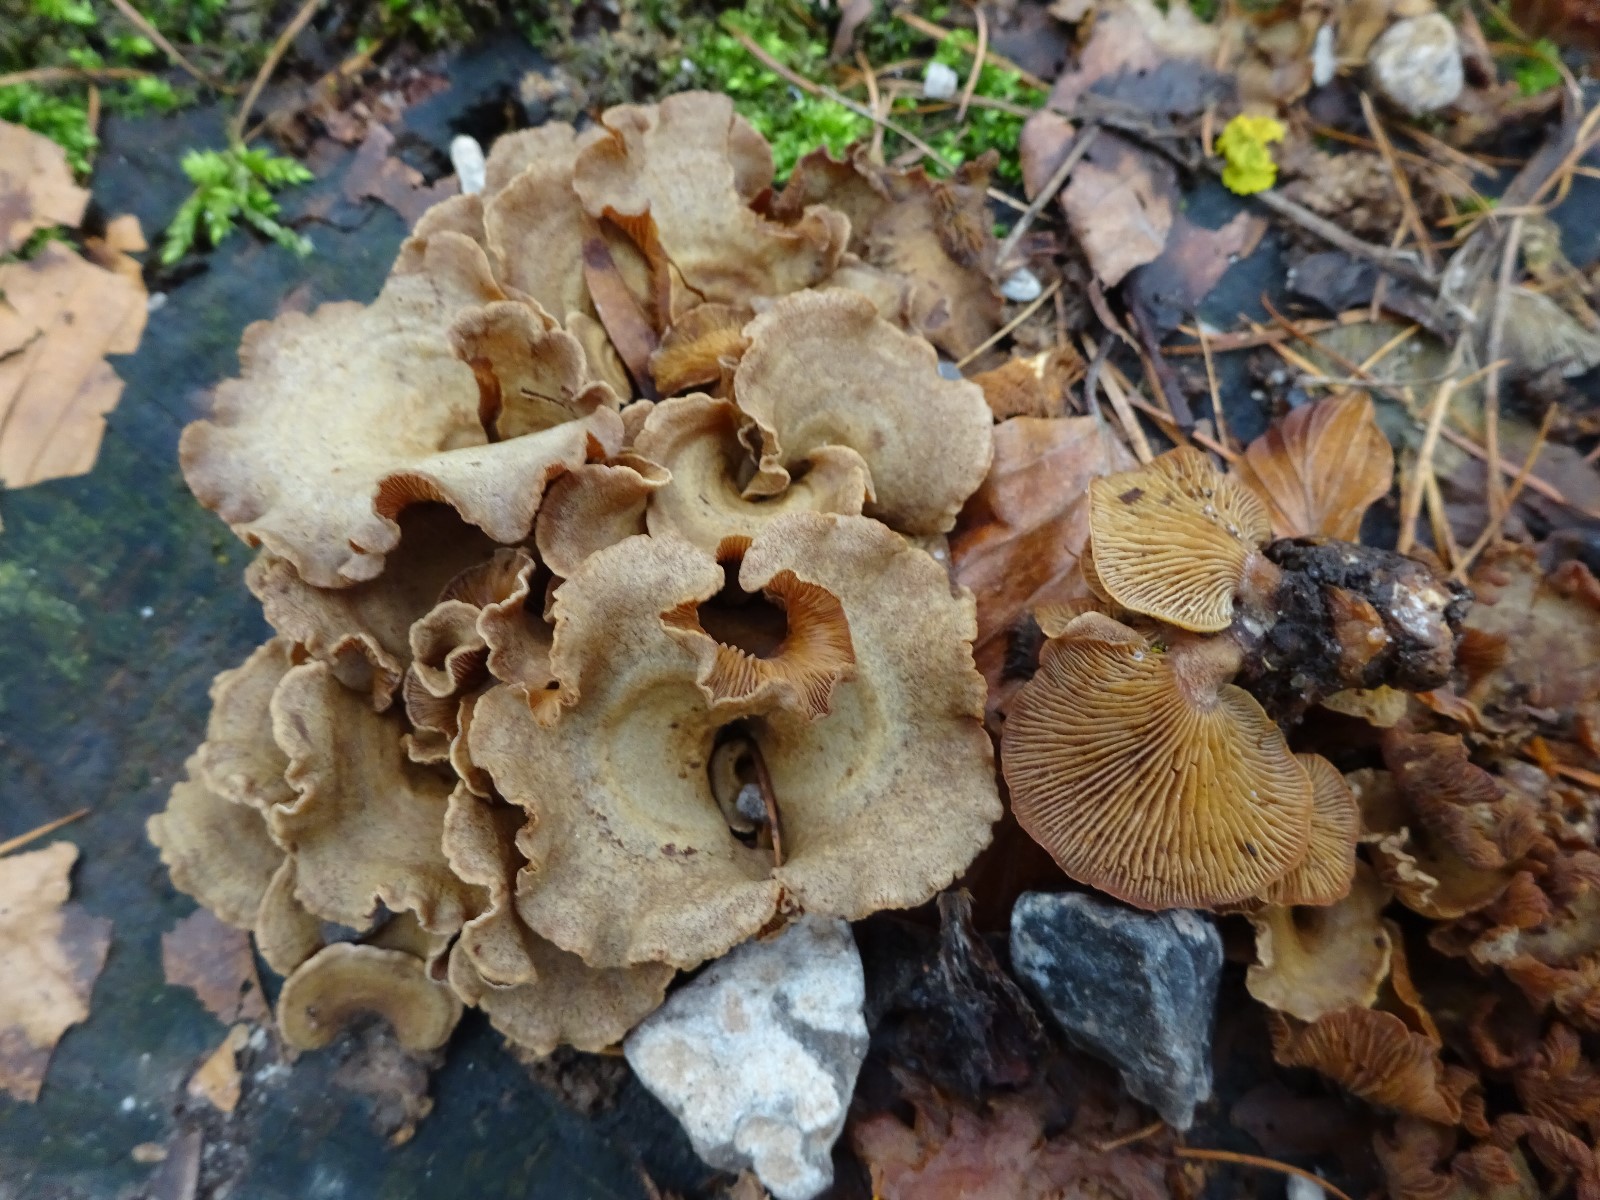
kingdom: Fungi
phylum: Basidiomycota
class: Agaricomycetes
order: Agaricales
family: Mycenaceae
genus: Panellus
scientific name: Panellus stipticus
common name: kliddet epaulethat
